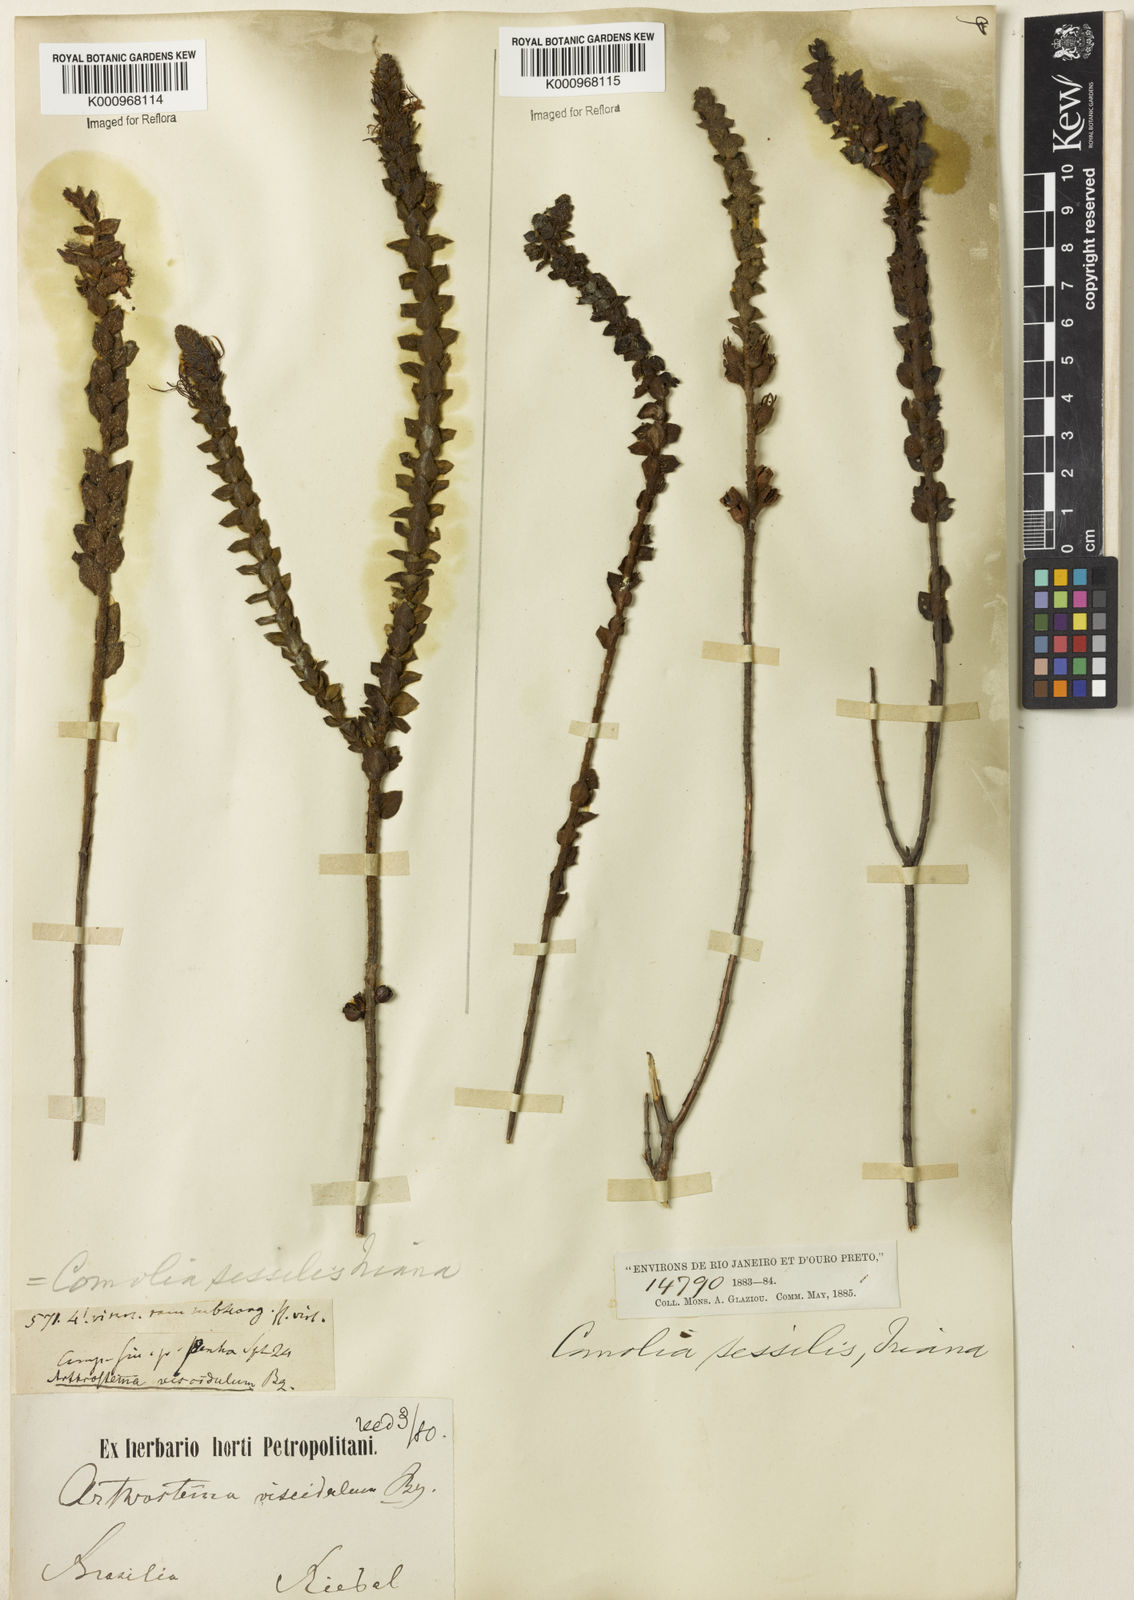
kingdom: Plantae
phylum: Tracheophyta
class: Magnoliopsida
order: Myrtales
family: Melastomataceae
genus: Fritzschia
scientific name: Fritzschia sessilis
